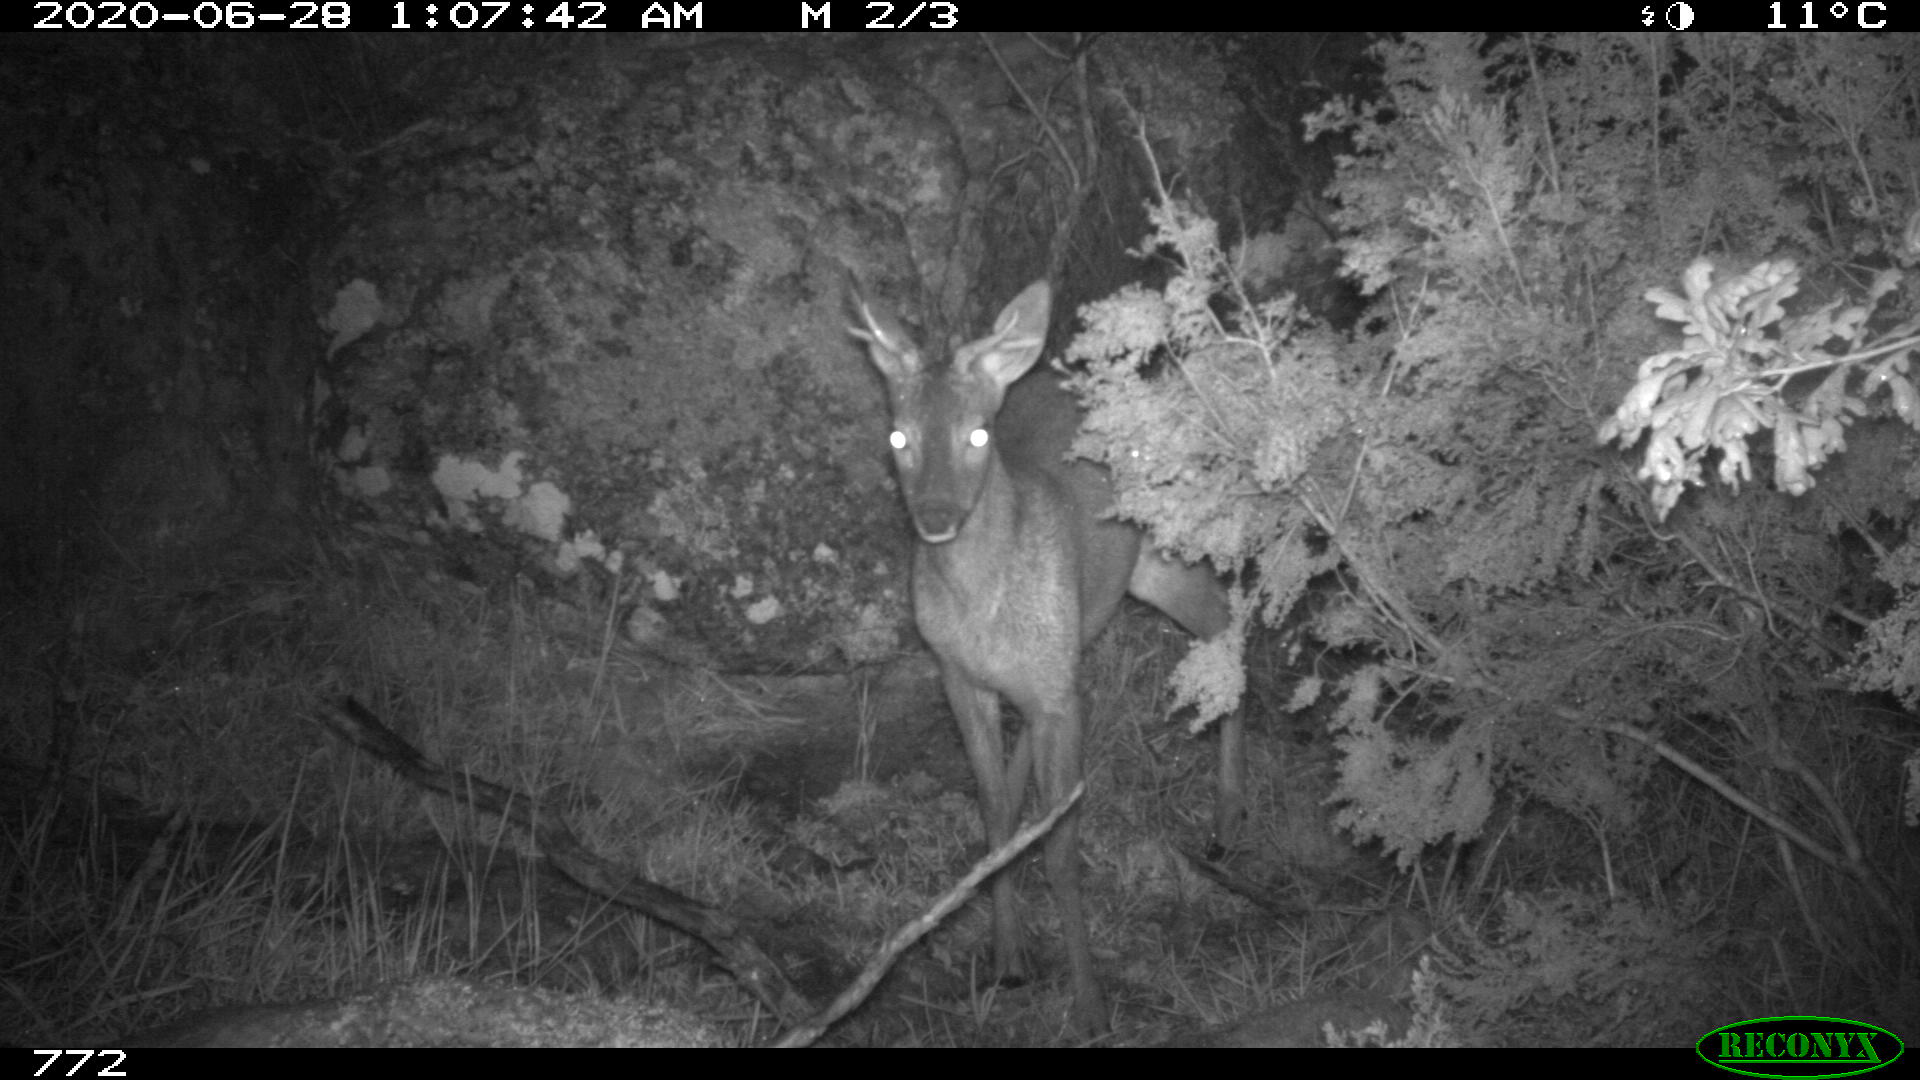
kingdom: Animalia
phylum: Chordata
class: Mammalia
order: Artiodactyla
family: Cervidae
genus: Capreolus
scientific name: Capreolus capreolus
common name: Western roe deer
